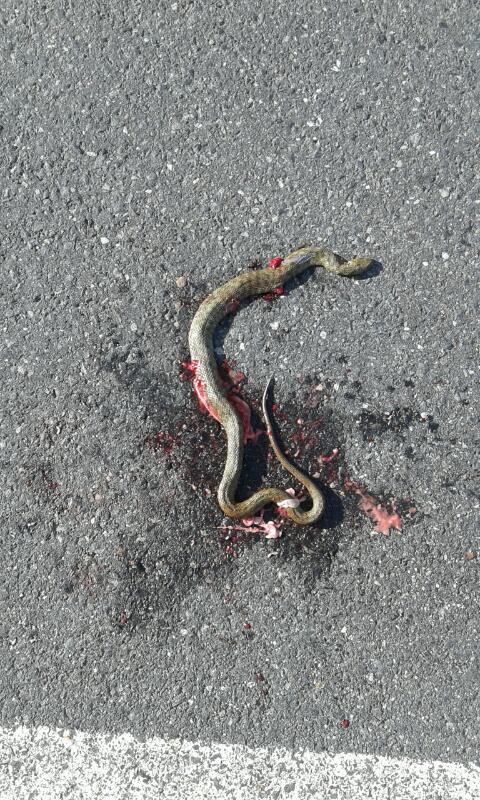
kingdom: Animalia
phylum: Chordata
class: Squamata
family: Colubridae
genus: Natrix
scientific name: Natrix tessellata
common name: Dice snake
